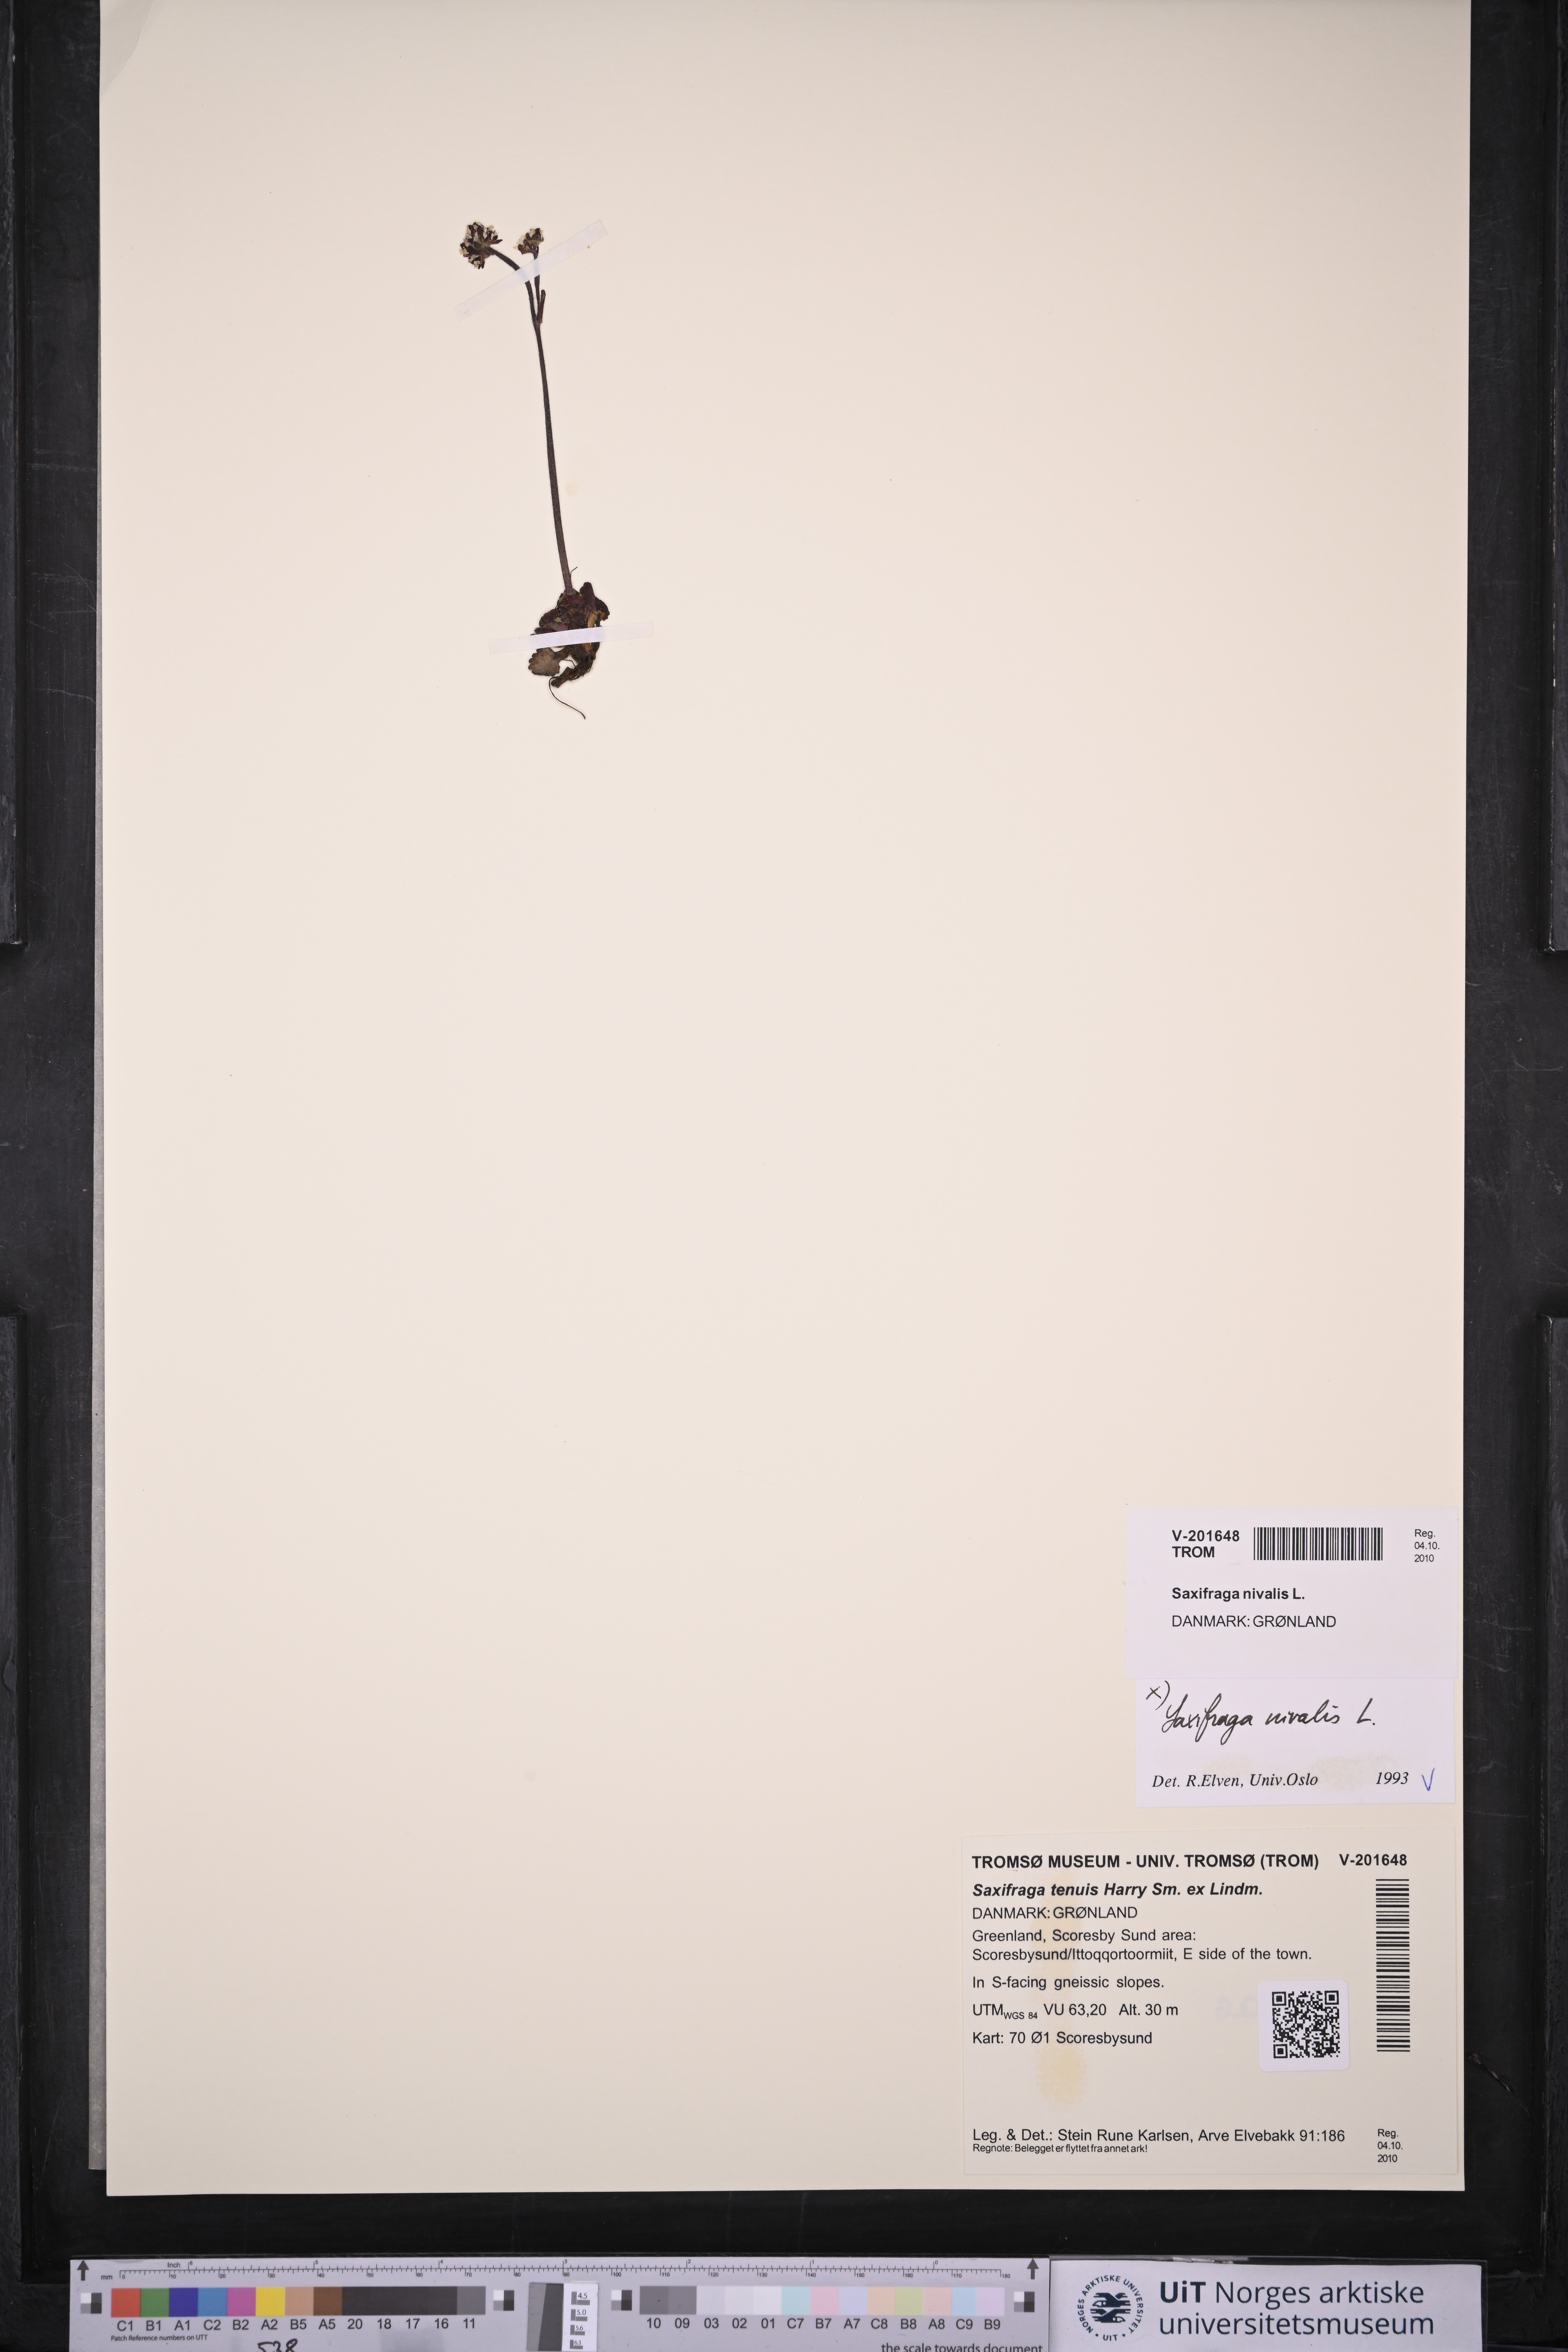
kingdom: Plantae
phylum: Tracheophyta
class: Magnoliopsida
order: Saxifragales
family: Saxifragaceae
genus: Micranthes
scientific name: Micranthes nivalis
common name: Alpine saxifrage
